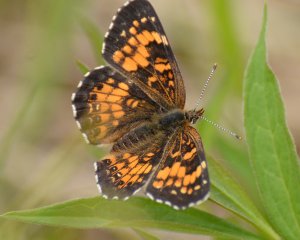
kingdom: Animalia
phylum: Arthropoda
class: Insecta
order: Lepidoptera
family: Nymphalidae
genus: Chlosyne
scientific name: Chlosyne harrisii
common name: Harris's Checkerspot
